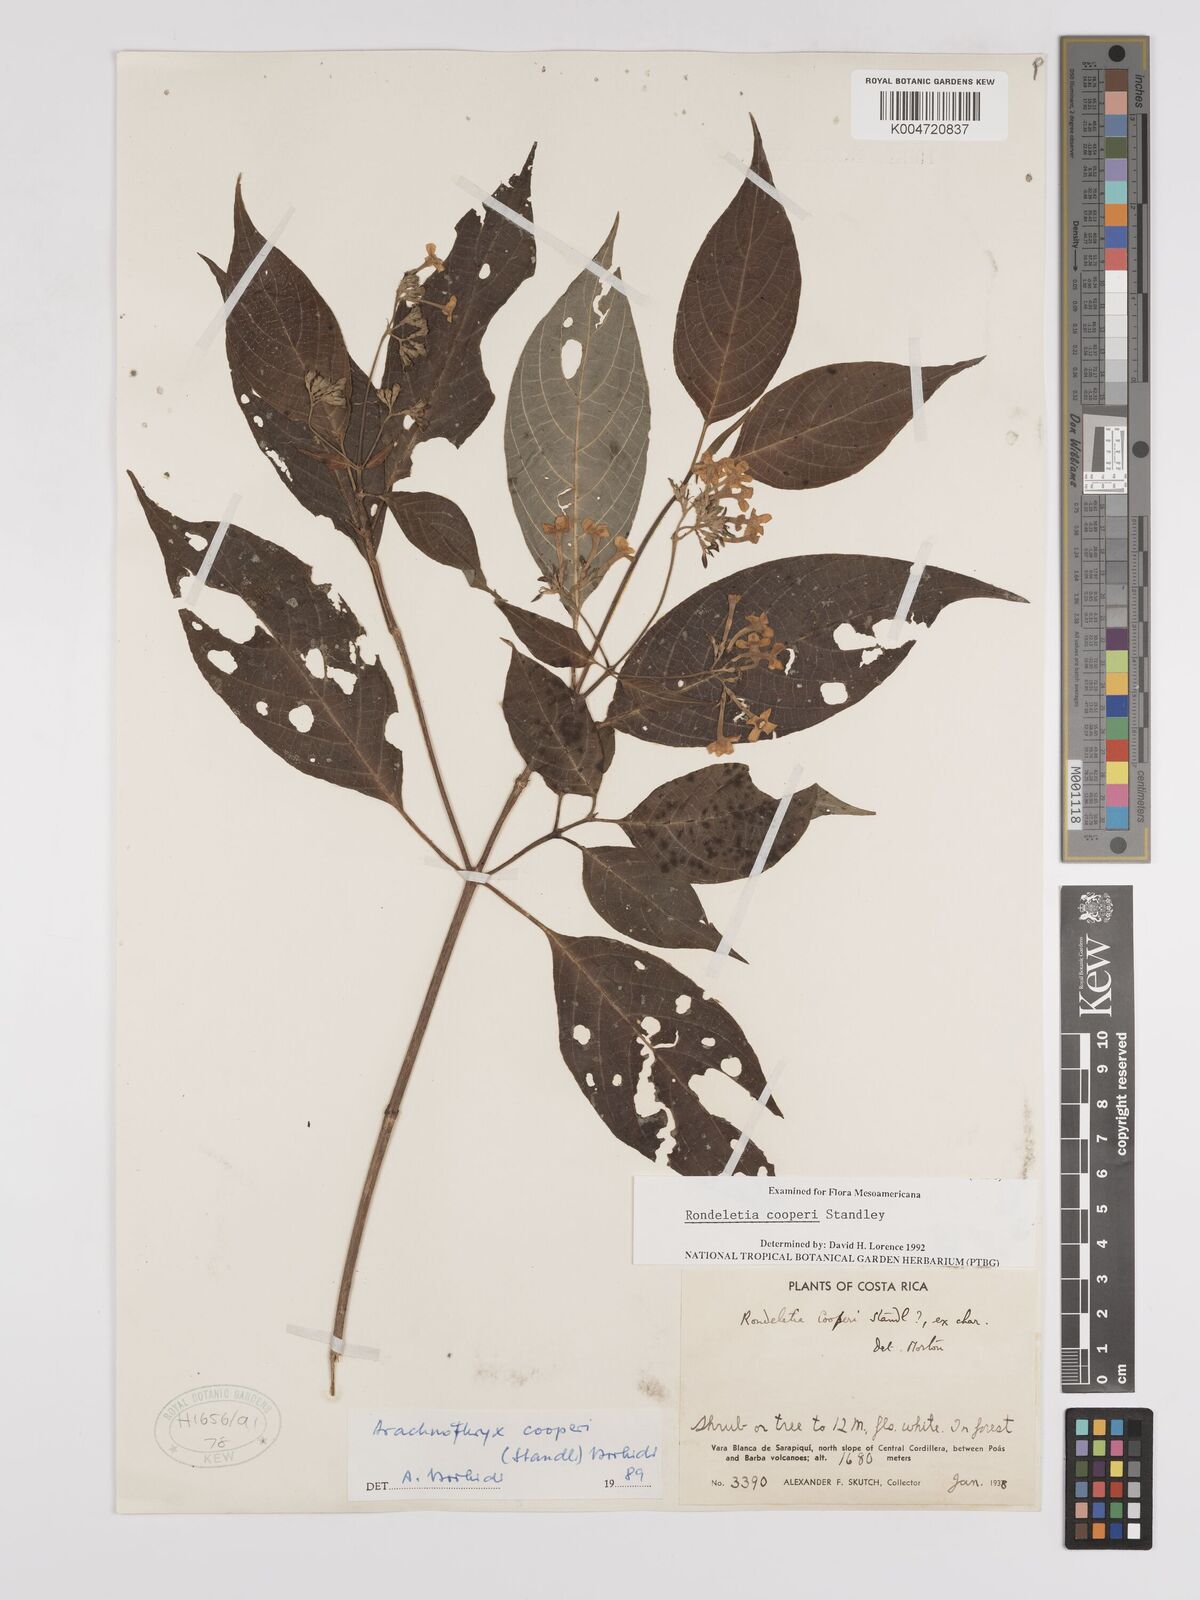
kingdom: Plantae
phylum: Tracheophyta
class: Magnoliopsida
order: Gentianales
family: Rubiaceae
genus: Arachnothryx
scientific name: Arachnothryx bertieroides
